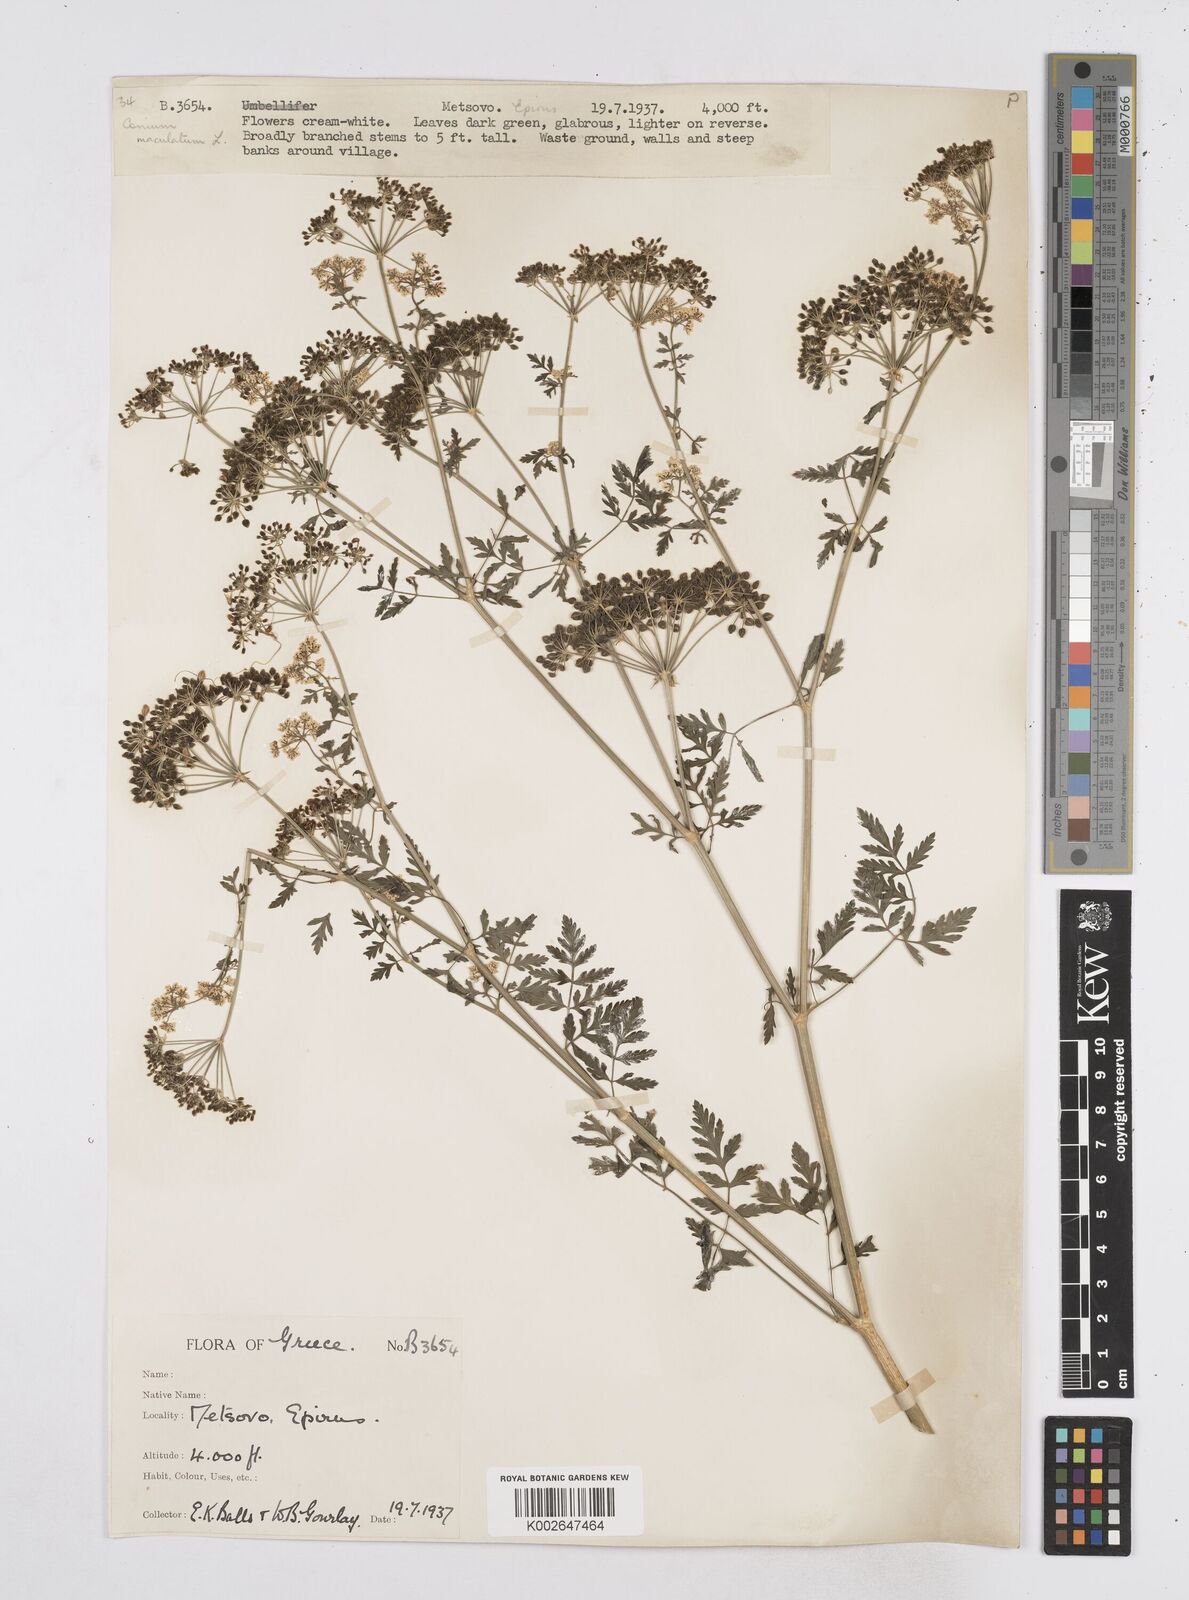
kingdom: Plantae
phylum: Tracheophyta
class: Magnoliopsida
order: Apiales
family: Apiaceae
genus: Conium
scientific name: Conium maculatum
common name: Hemlock
